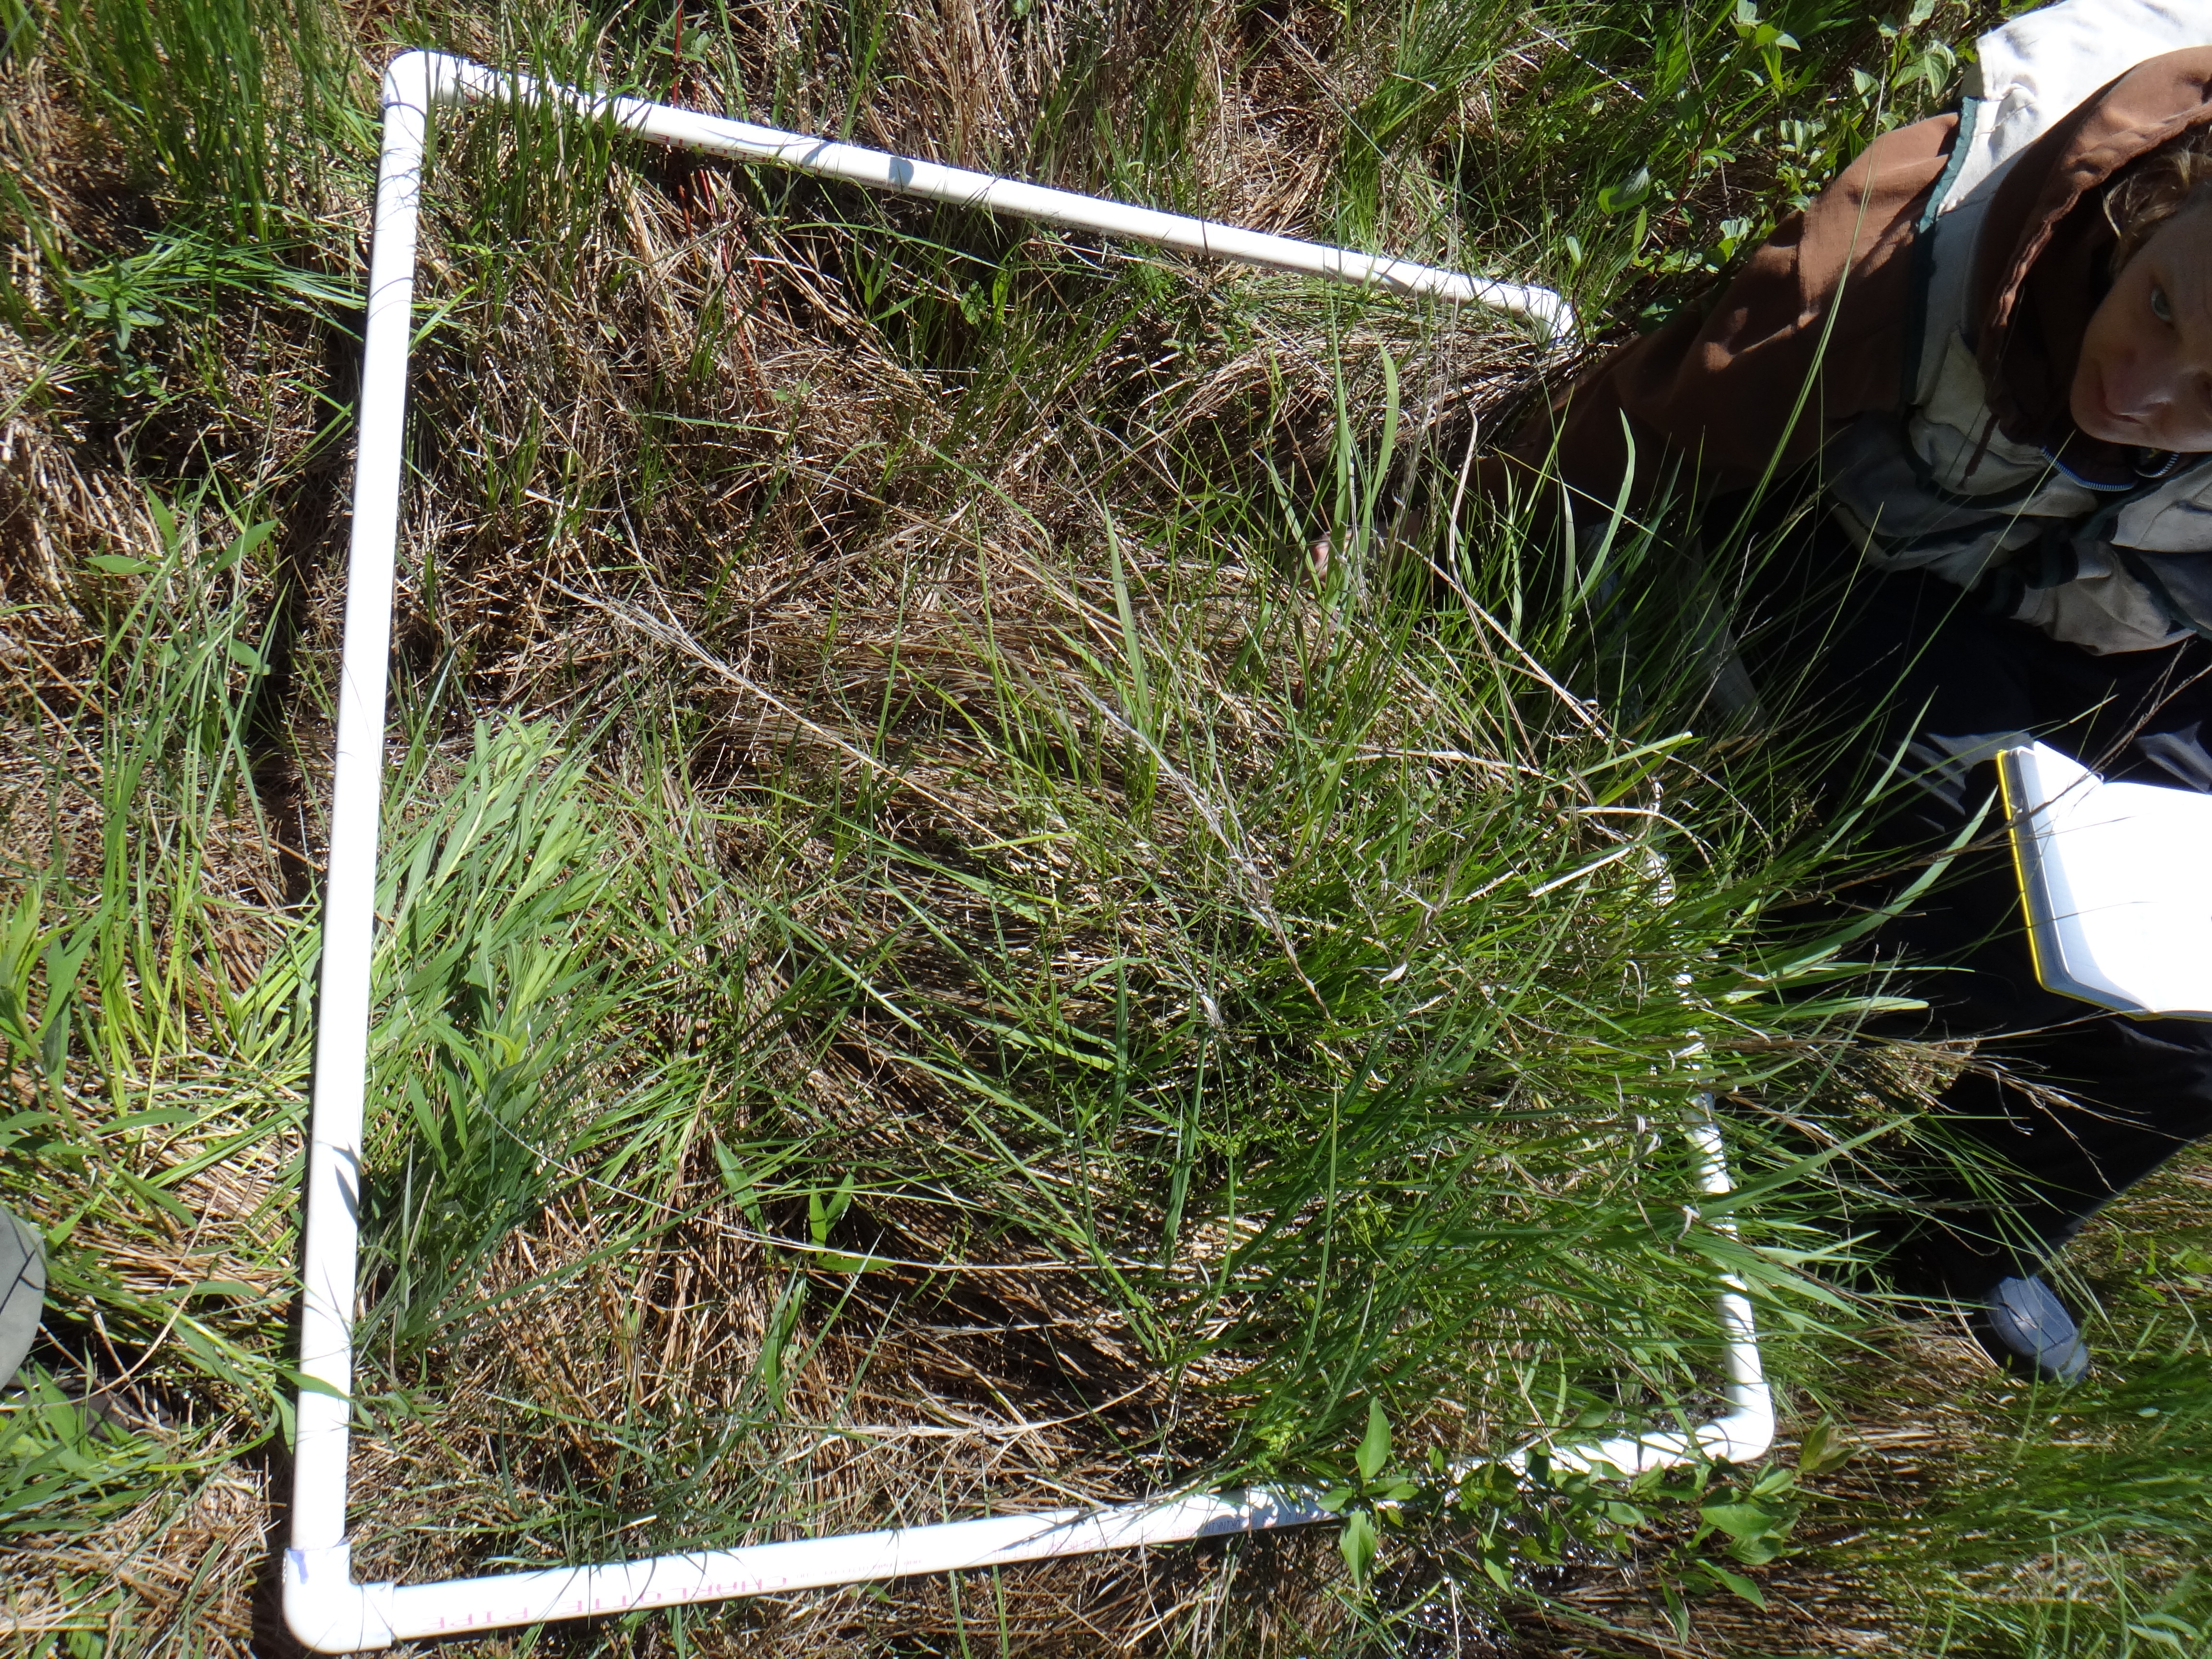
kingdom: Plantae
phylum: Tracheophyta
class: Magnoliopsida
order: Asterales
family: Asteraceae
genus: Solidago
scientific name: Solidago canadensis
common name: Canada goldenrod
